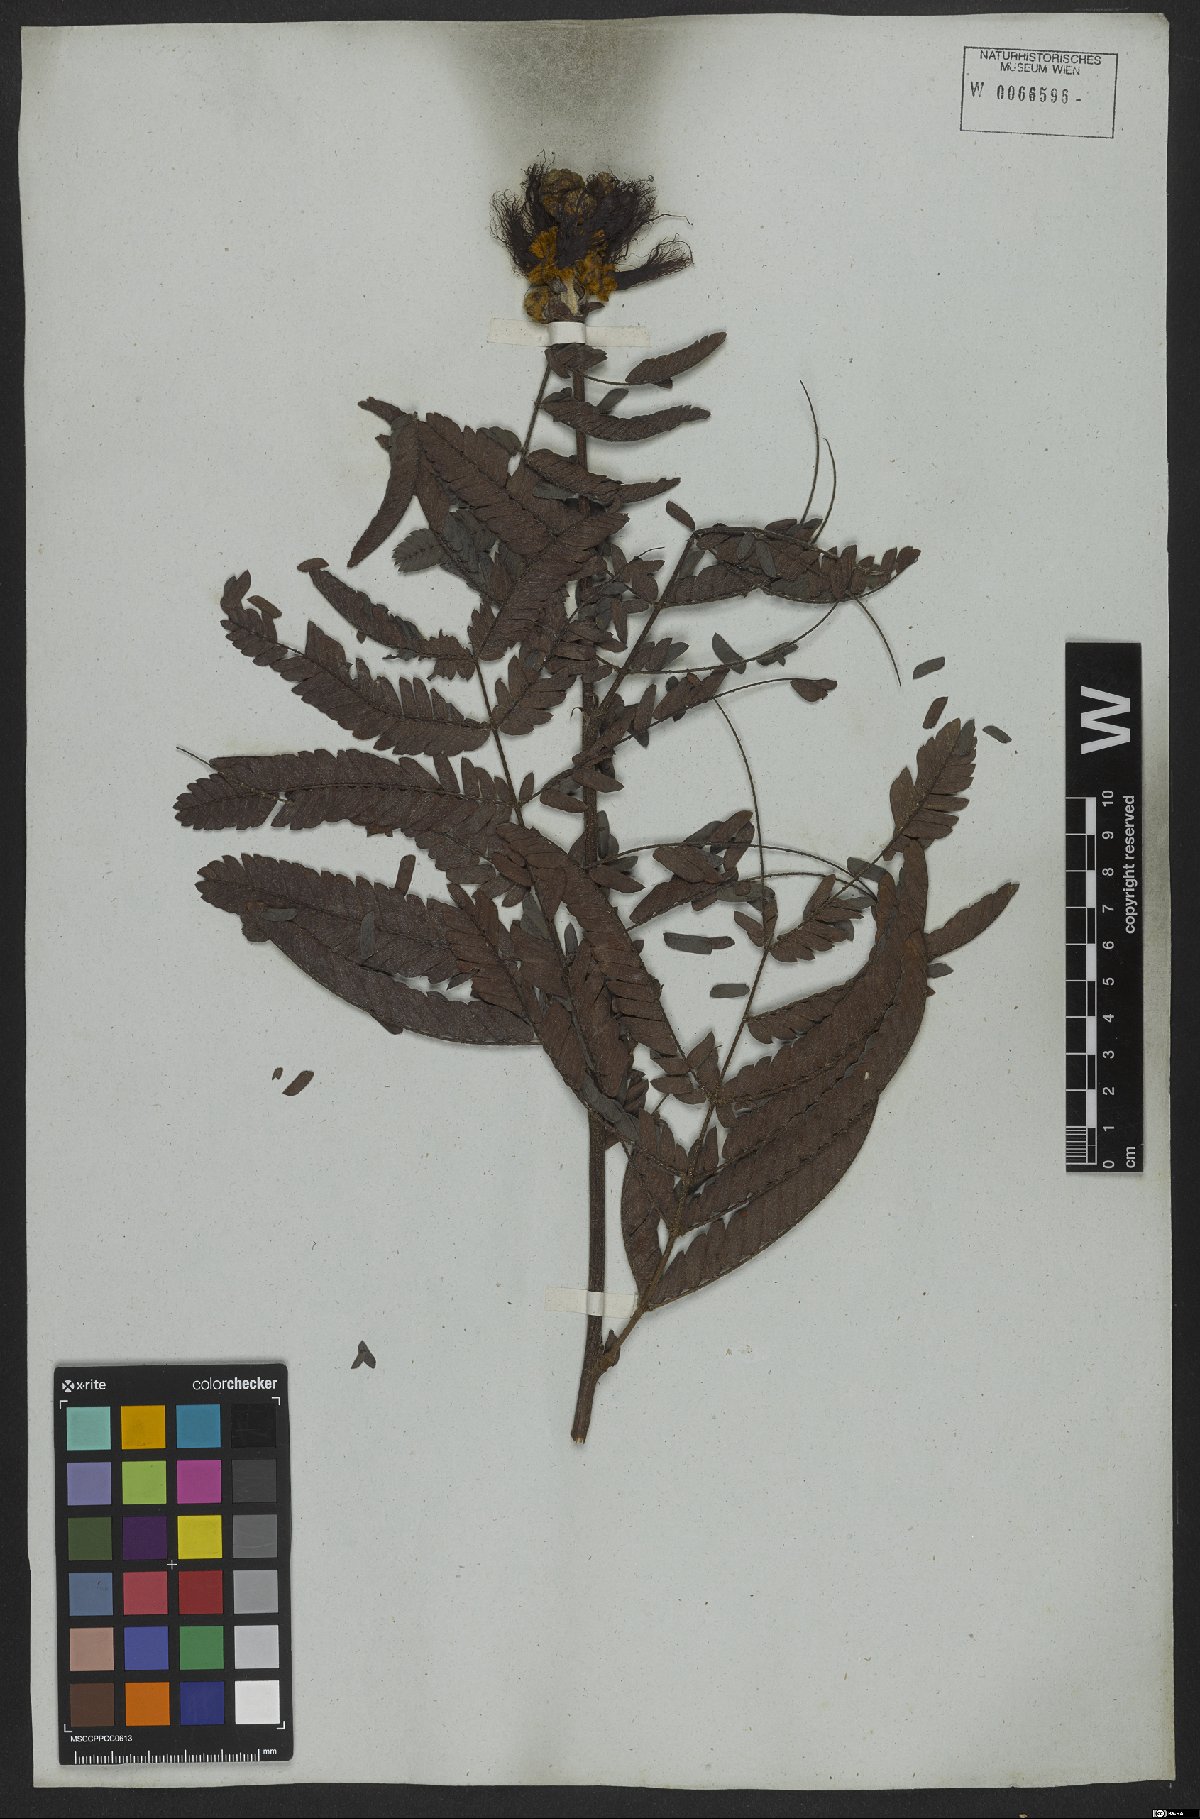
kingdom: Plantae
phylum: Tracheophyta
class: Magnoliopsida
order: Fabales
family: Fabaceae
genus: Calliandra
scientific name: Calliandra dysantha
